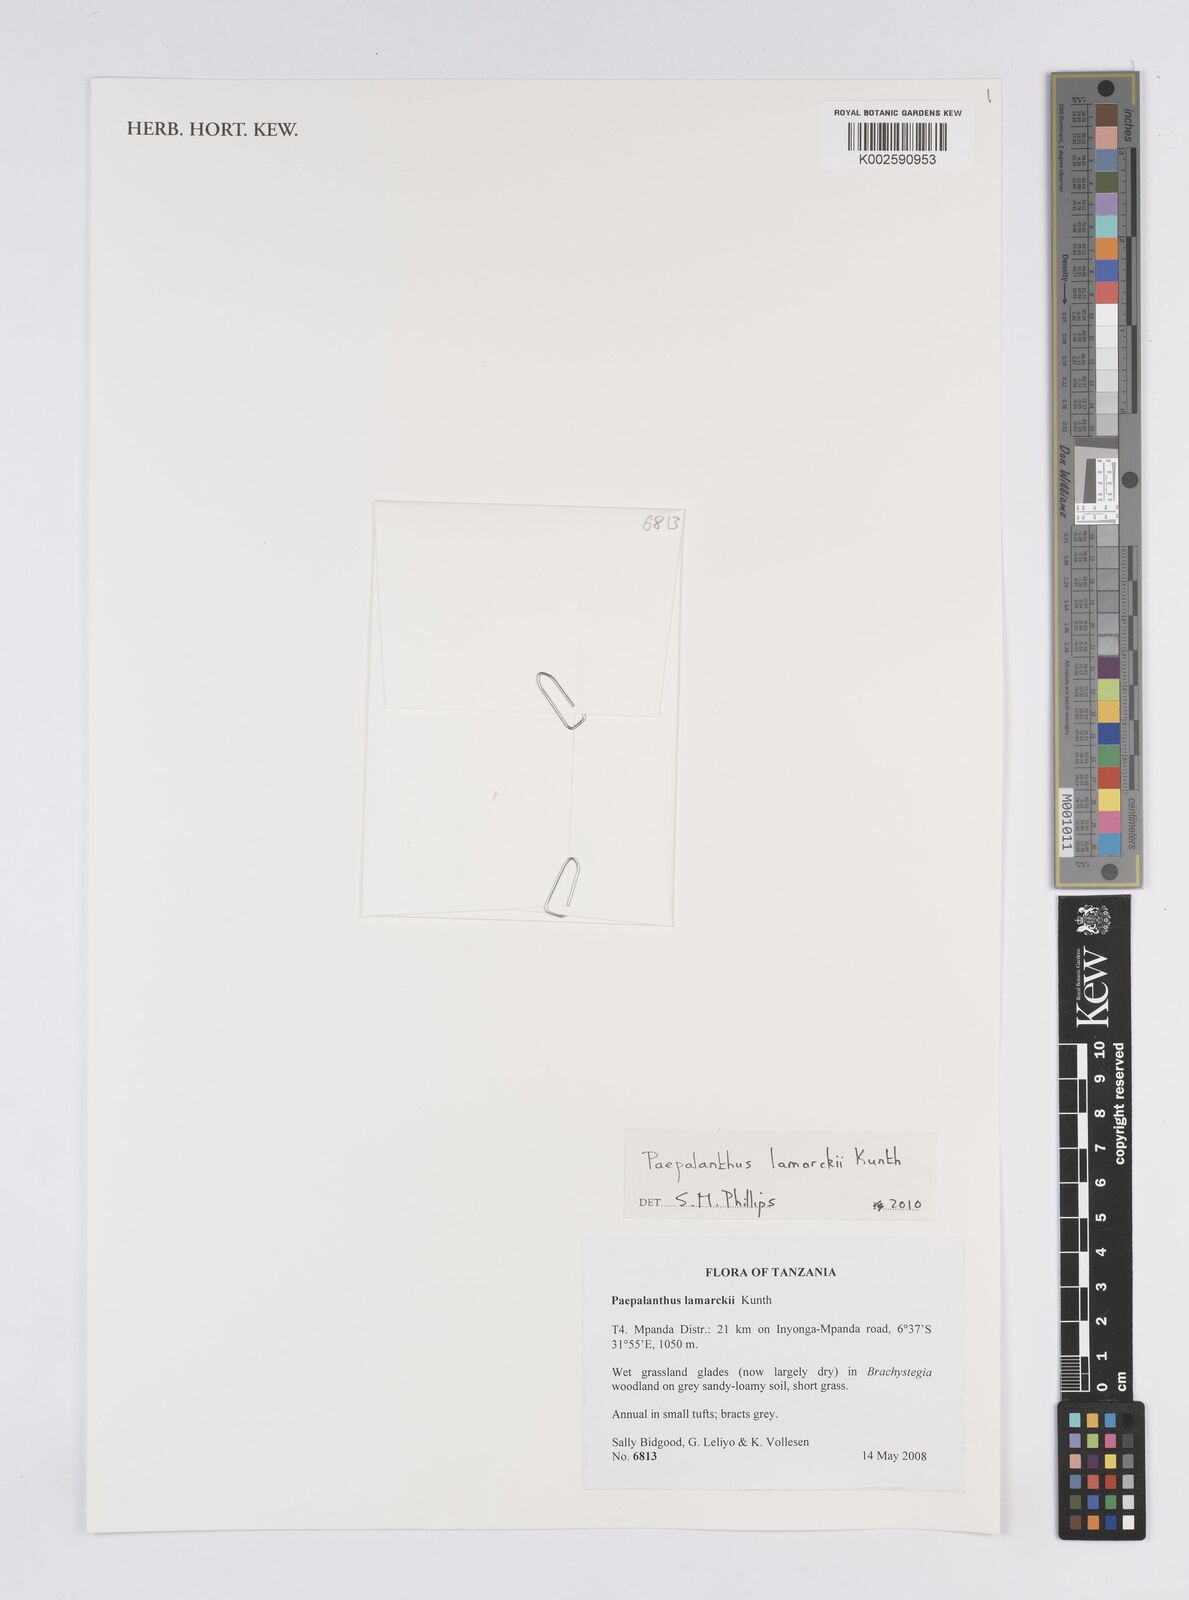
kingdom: Plantae
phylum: Tracheophyta
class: Liliopsida
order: Poales
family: Eriocaulaceae
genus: Paepalanthus
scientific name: Paepalanthus lamarckii
